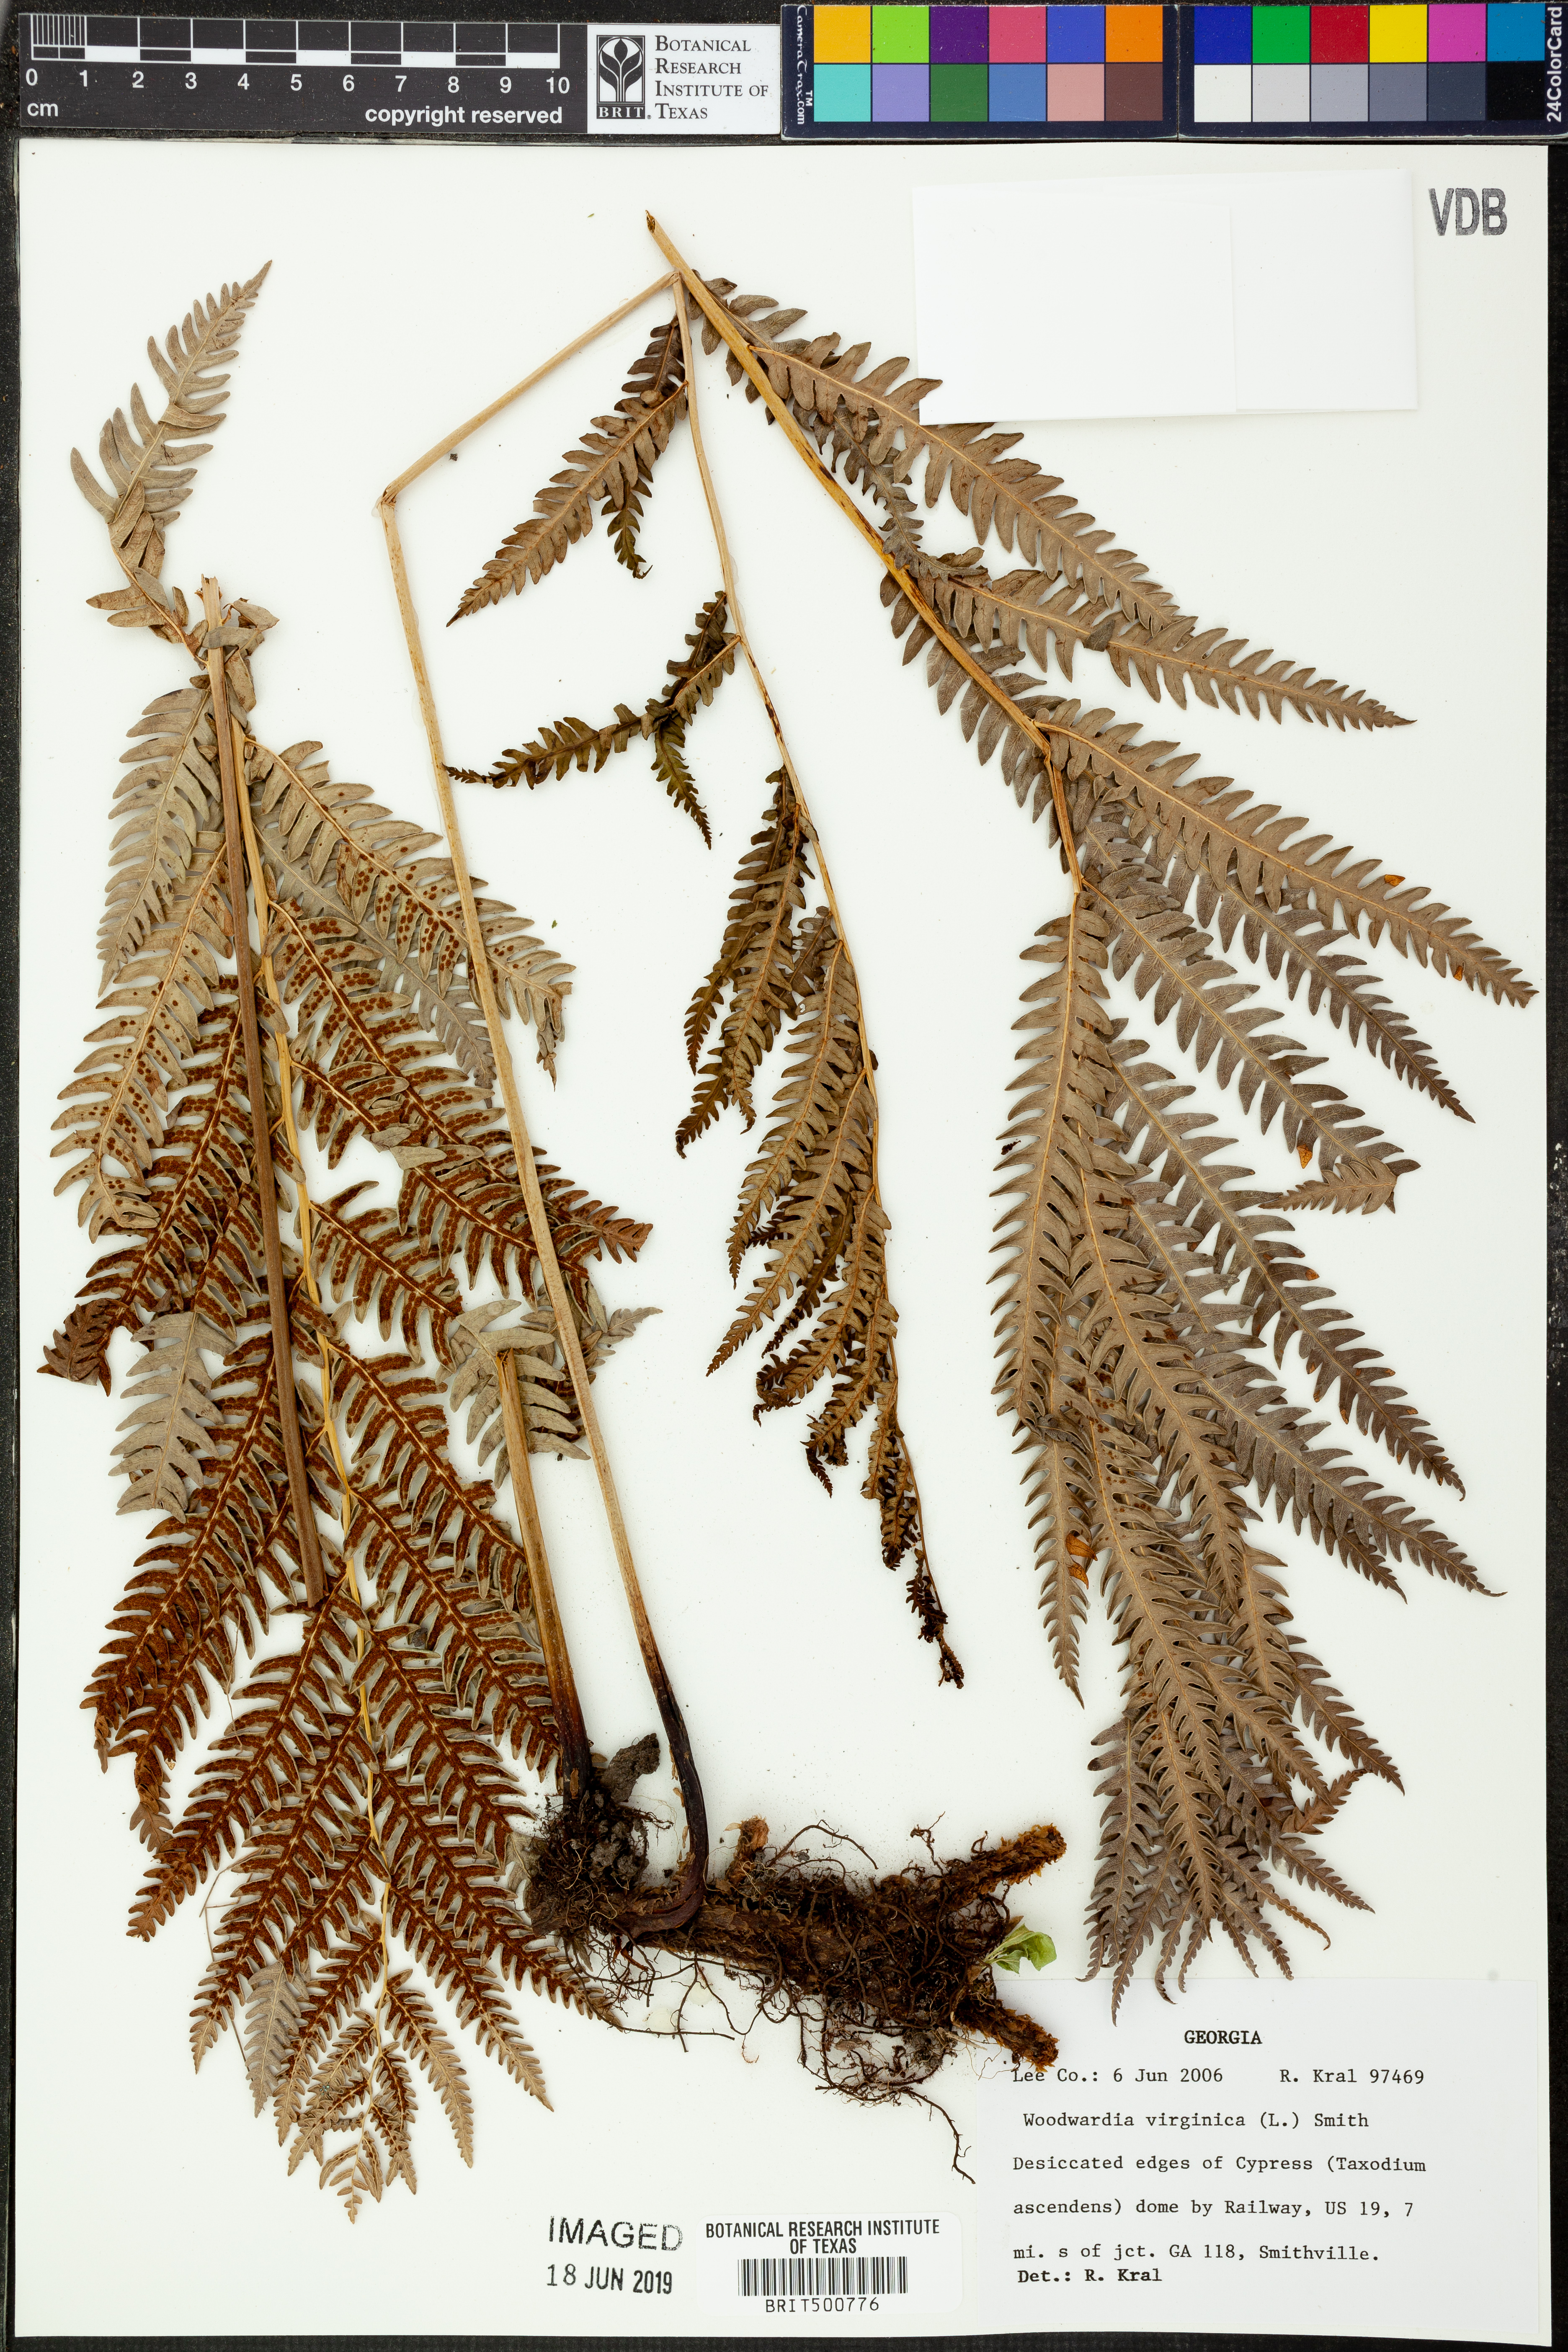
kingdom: Plantae
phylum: Tracheophyta
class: Polypodiopsida
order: Polypodiales
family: Blechnaceae
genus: Anchistea
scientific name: Anchistea virginica
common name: Virginia chain fern
